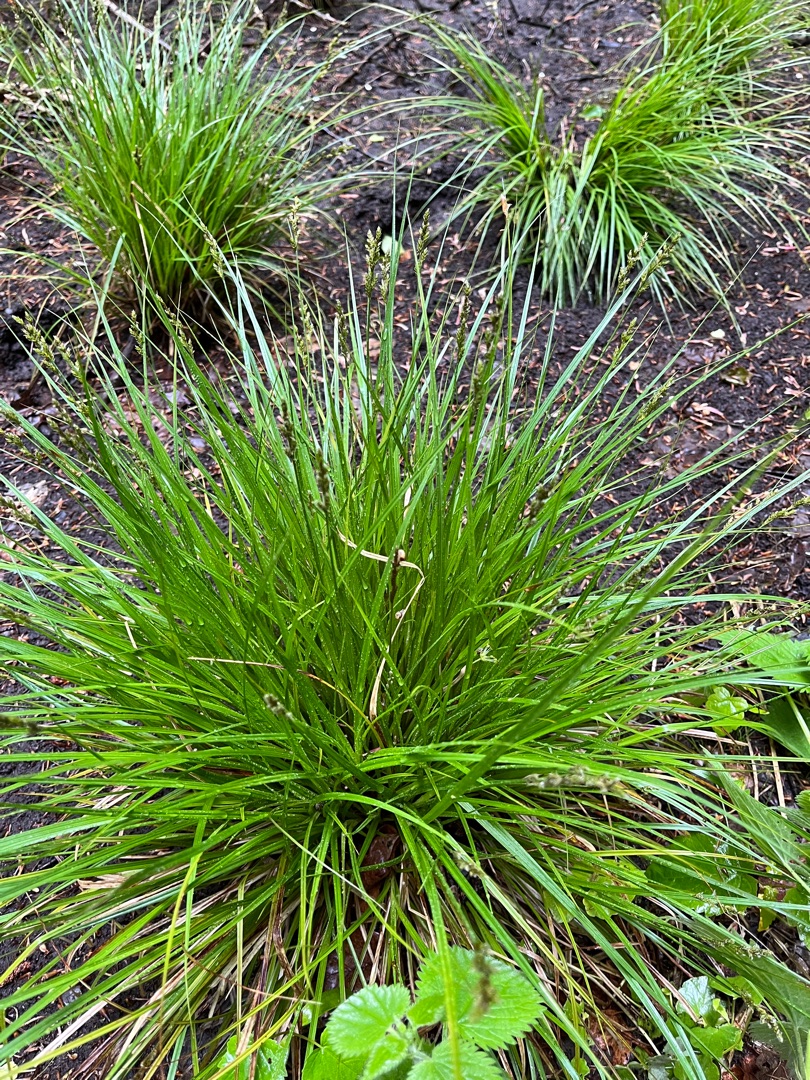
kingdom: Plantae
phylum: Tracheophyta
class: Liliopsida
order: Poales
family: Cyperaceae
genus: Carex
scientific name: Carex canescens
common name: Grå star
